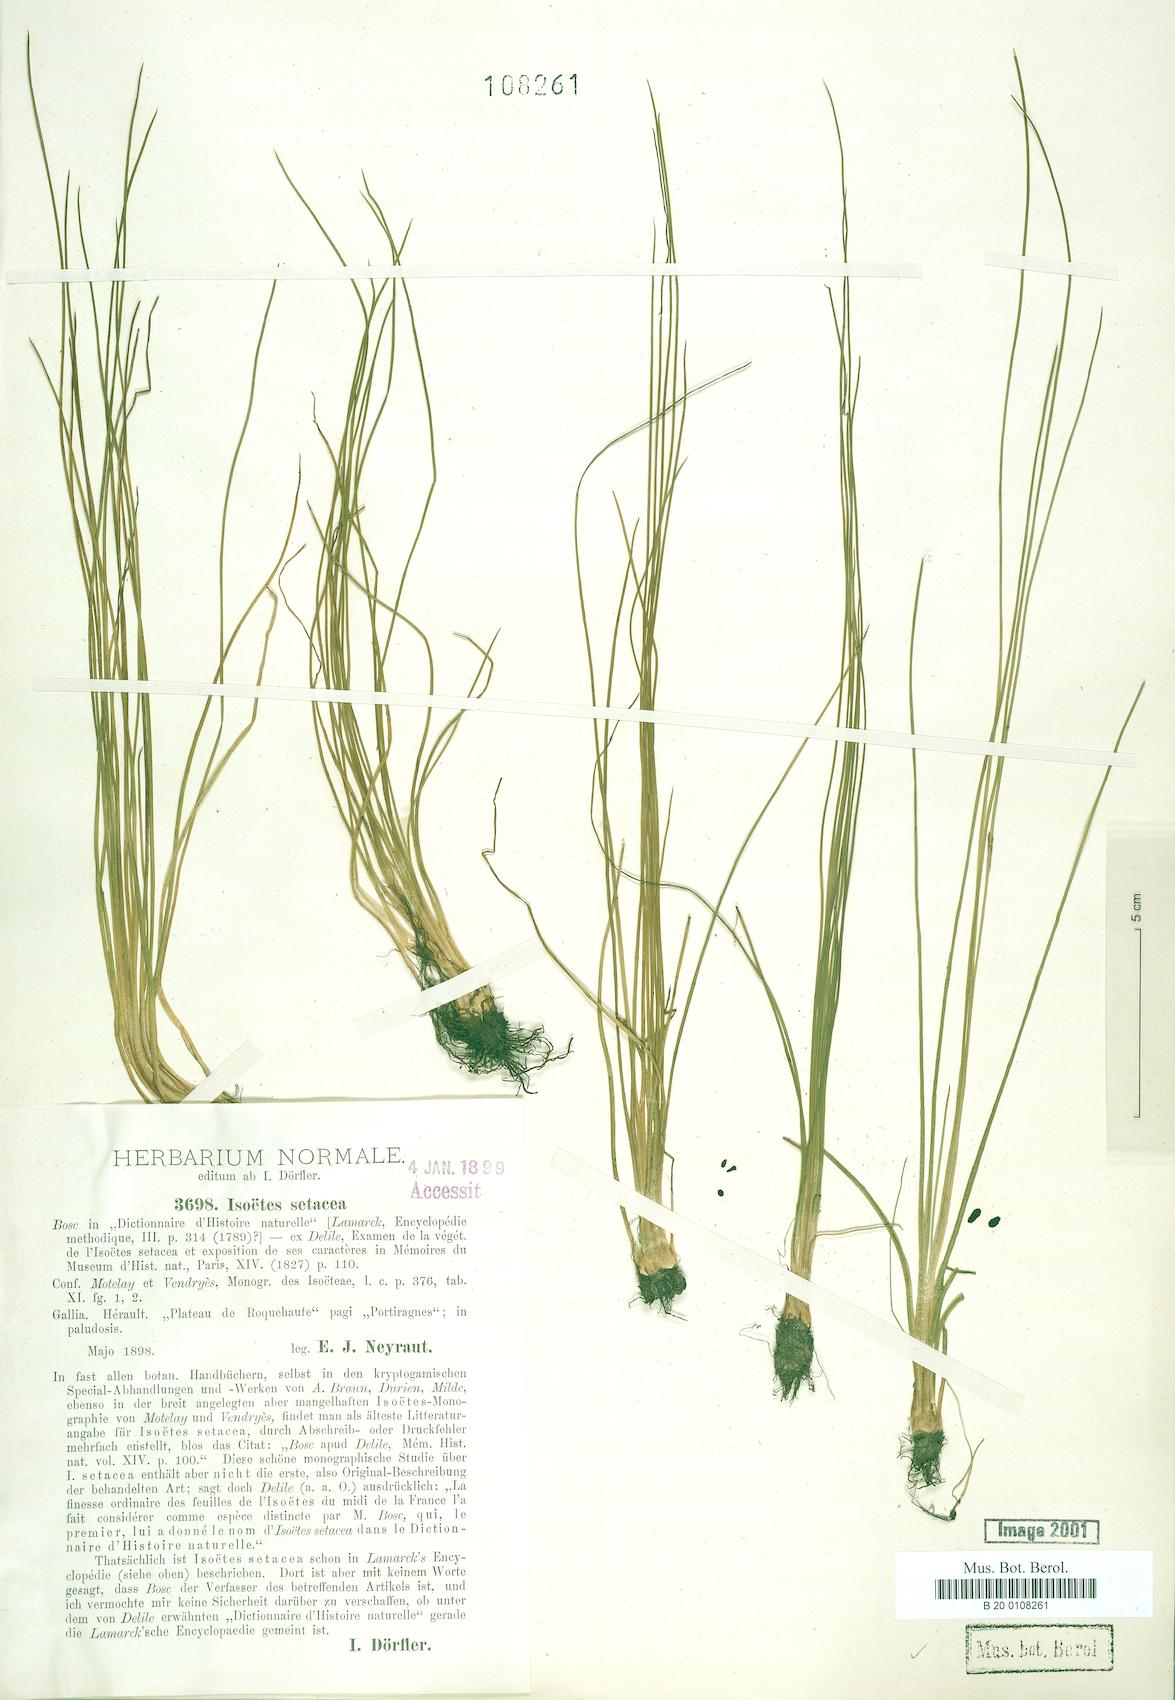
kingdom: Plantae
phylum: Tracheophyta
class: Lycopodiopsida
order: Isoetales
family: Isoetaceae
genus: Isoetes
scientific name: Isoetes lacustris
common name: Common quillwort
